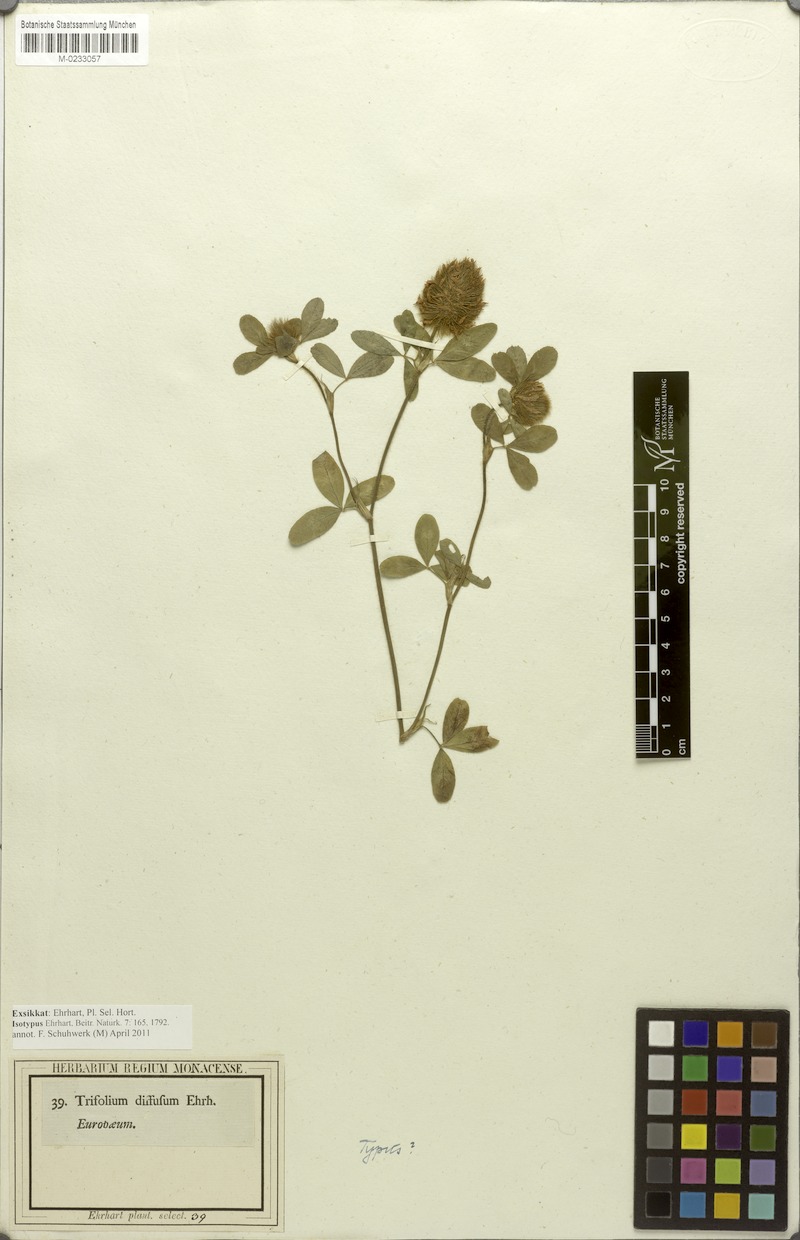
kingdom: Plantae
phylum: Tracheophyta
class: Magnoliopsida
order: Fabales
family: Fabaceae
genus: Trifolium
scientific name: Trifolium diffusum
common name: Diffuse clover
